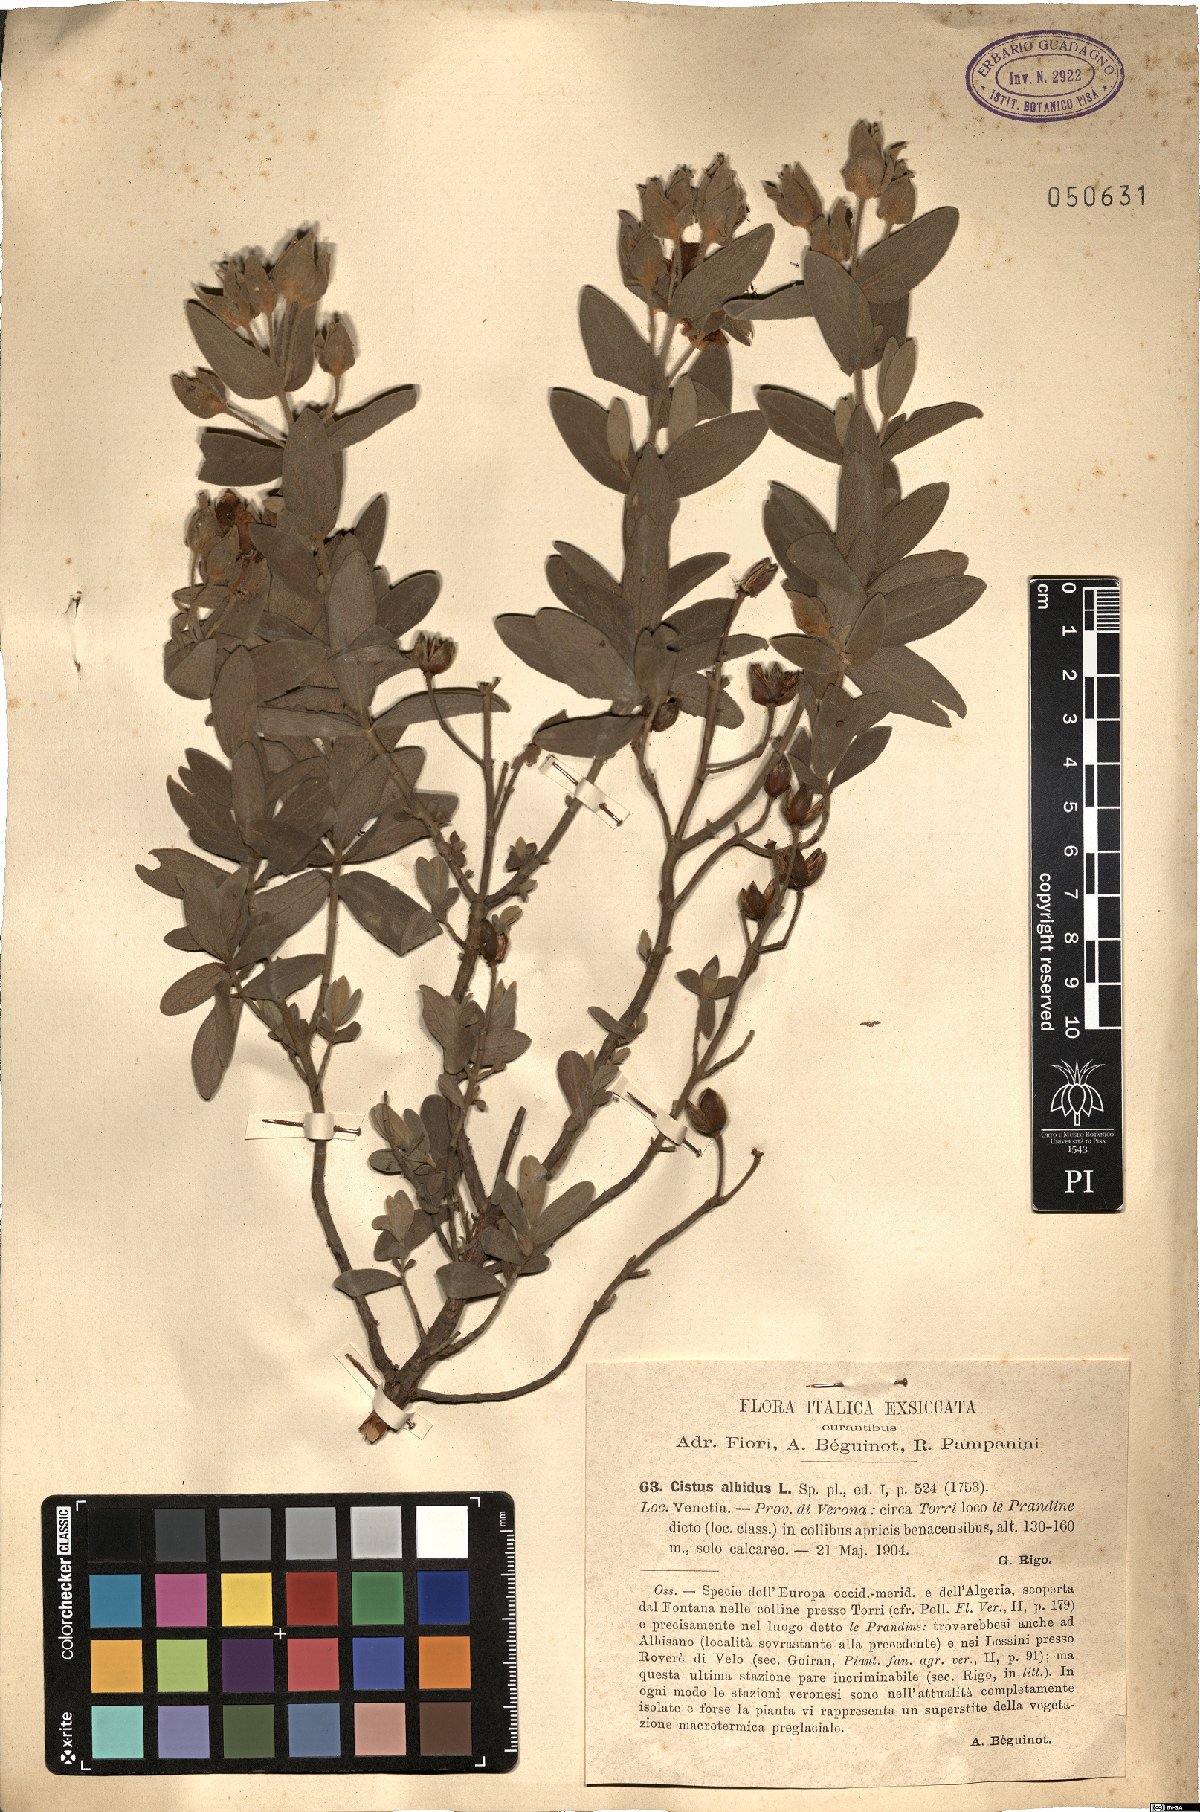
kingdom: Plantae
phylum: Tracheophyta
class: Magnoliopsida
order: Malvales
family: Cistaceae
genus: Cistus
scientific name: Cistus albidus
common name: White-leaf rock-rose
